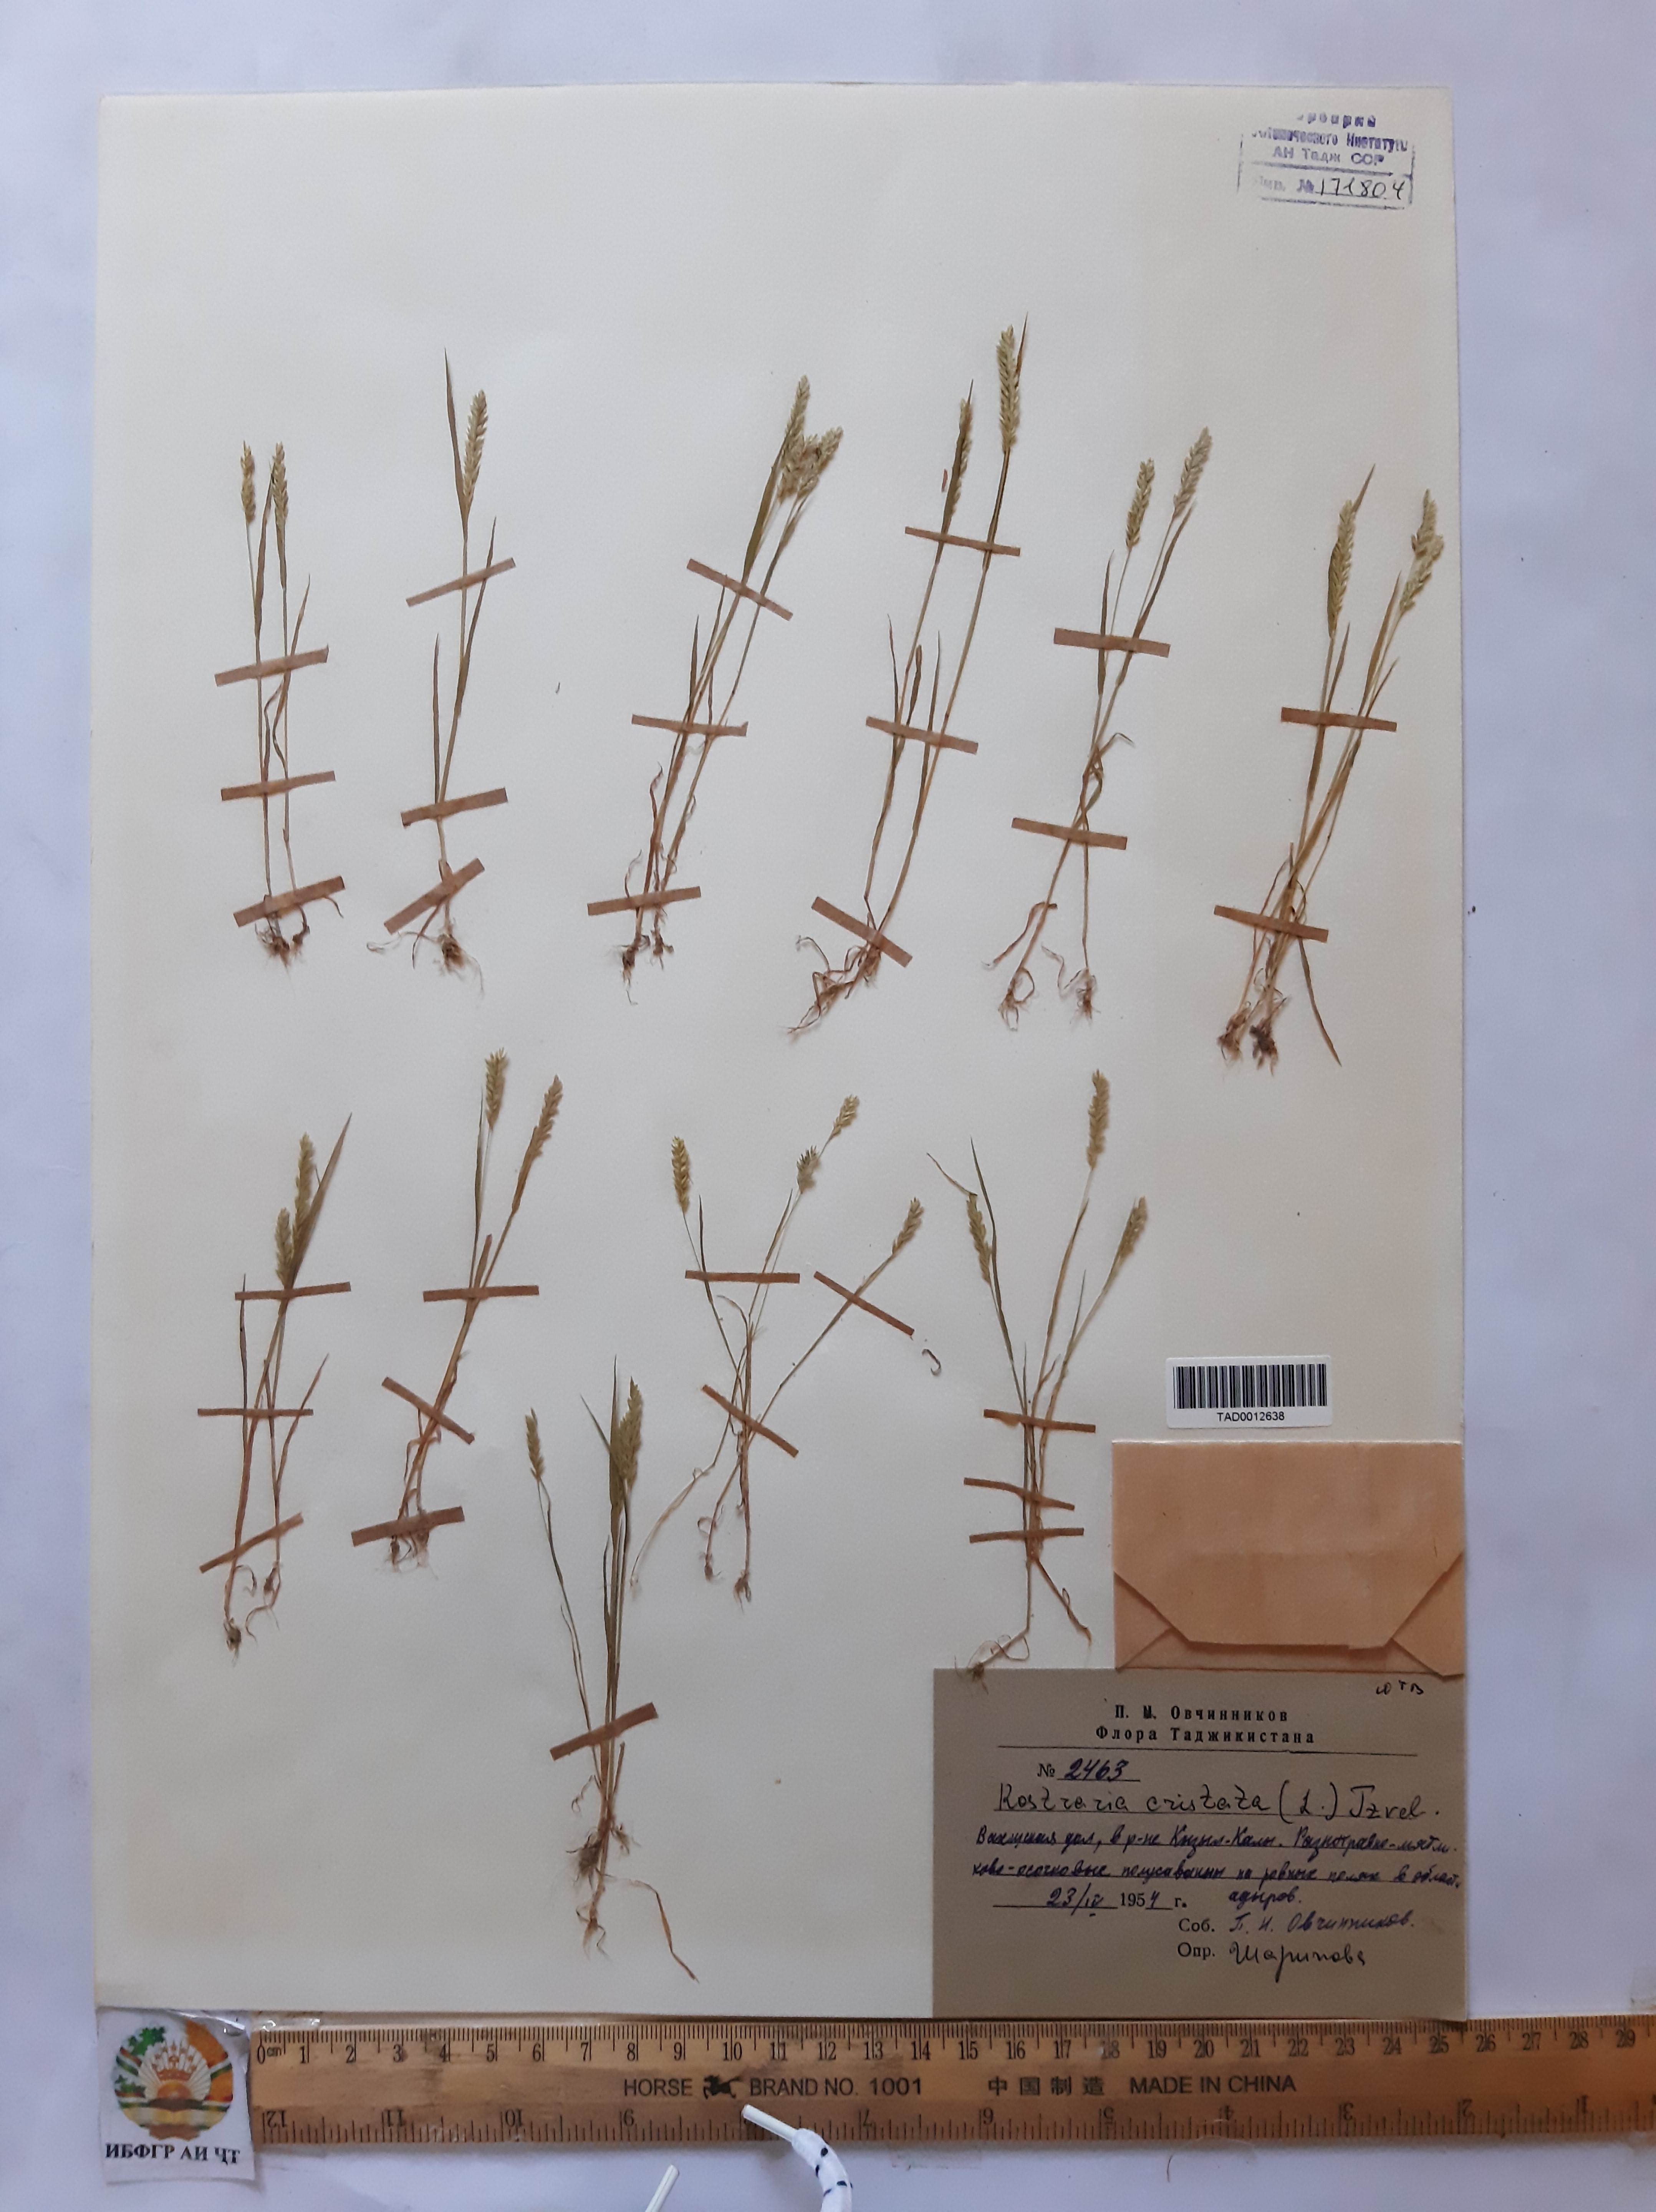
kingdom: Plantae
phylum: Tracheophyta
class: Liliopsida
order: Poales
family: Poaceae
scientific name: Poaceae
